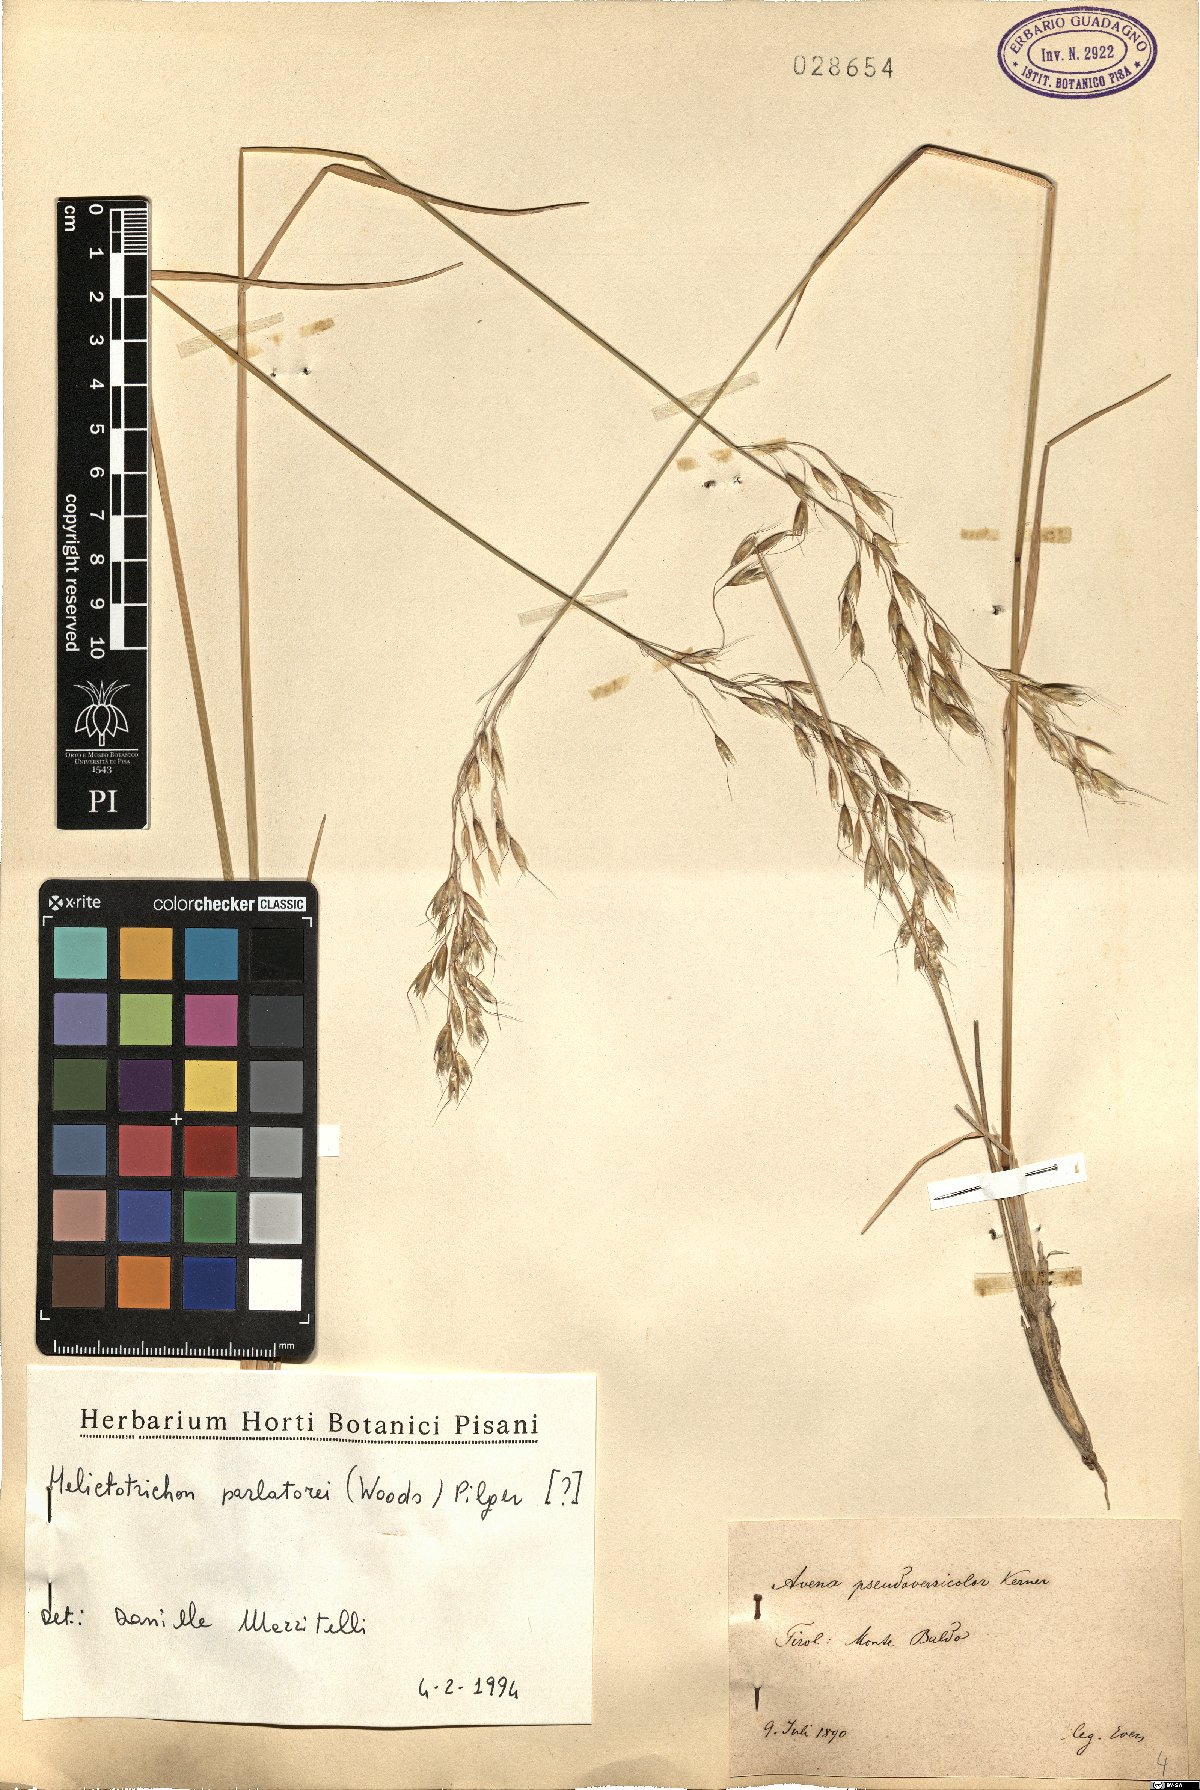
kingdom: Plantae
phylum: Tracheophyta
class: Liliopsida
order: Poales
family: Poaceae
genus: Helictotrichon
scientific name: Helictotrichon parlatorei
